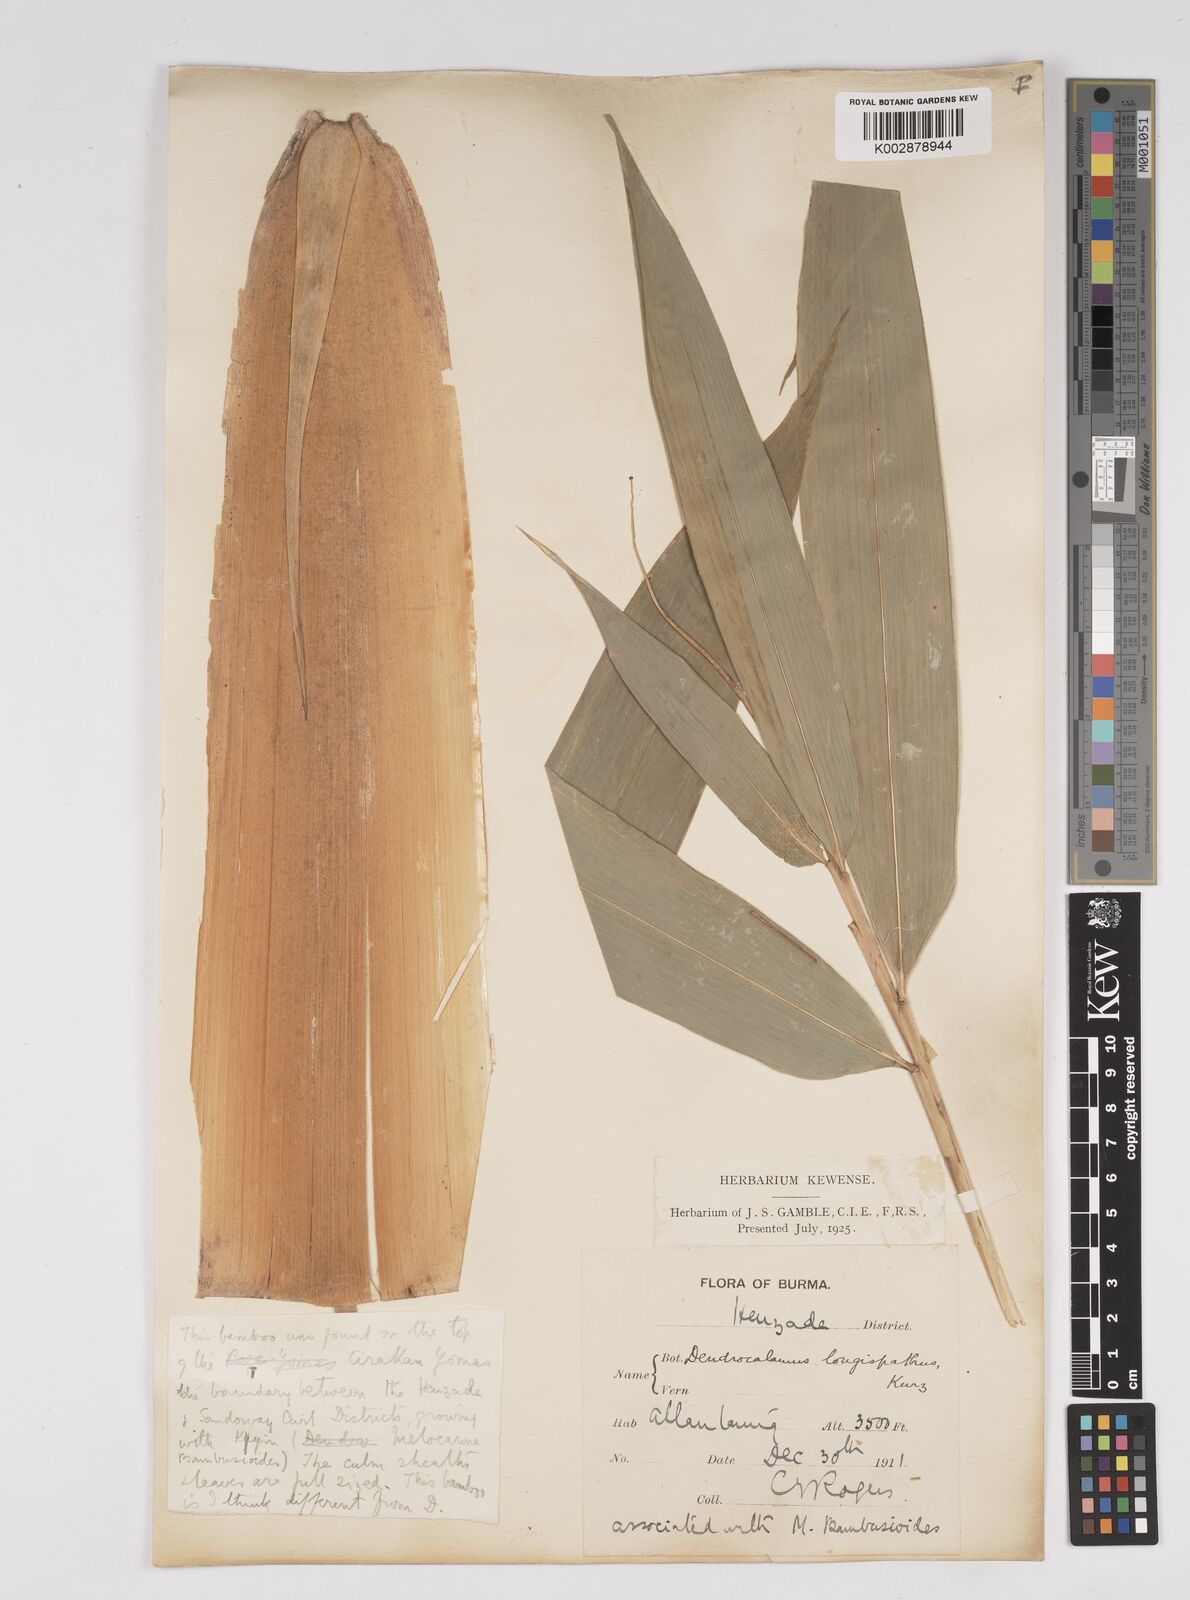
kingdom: Plantae
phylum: Tracheophyta
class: Liliopsida
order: Poales
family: Poaceae
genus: Dendrocalamus
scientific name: Dendrocalamus longispathus
